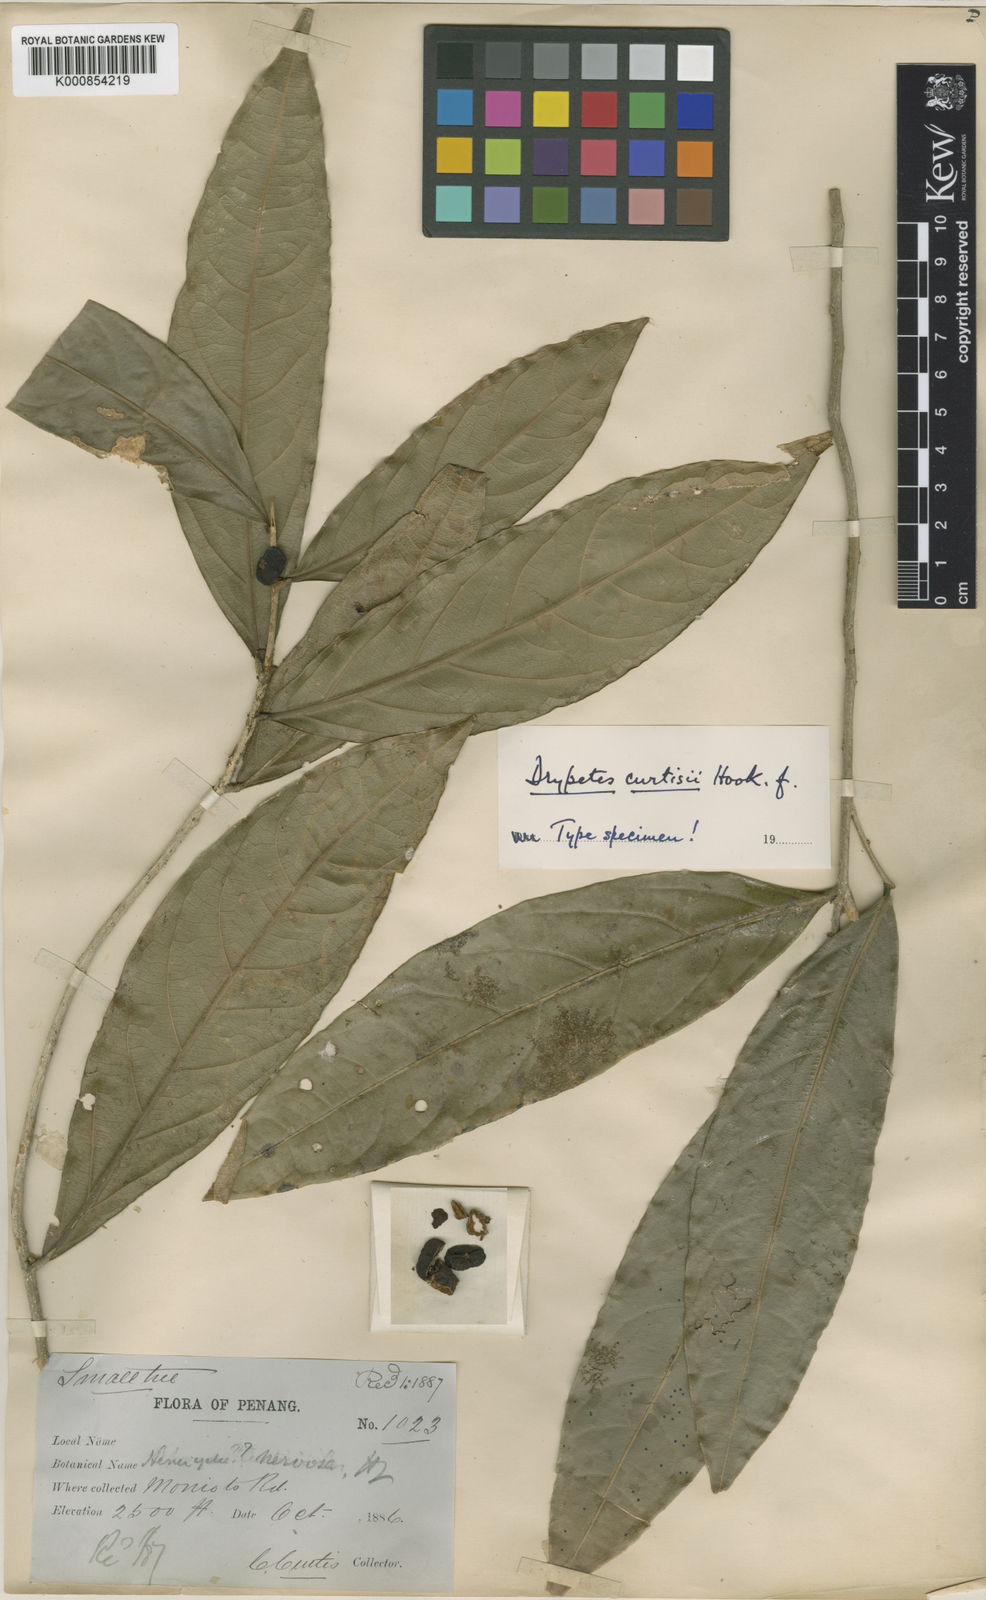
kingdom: Plantae
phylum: Tracheophyta
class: Magnoliopsida
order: Malpighiales
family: Putranjivaceae
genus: Drypetes
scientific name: Drypetes curtisii
